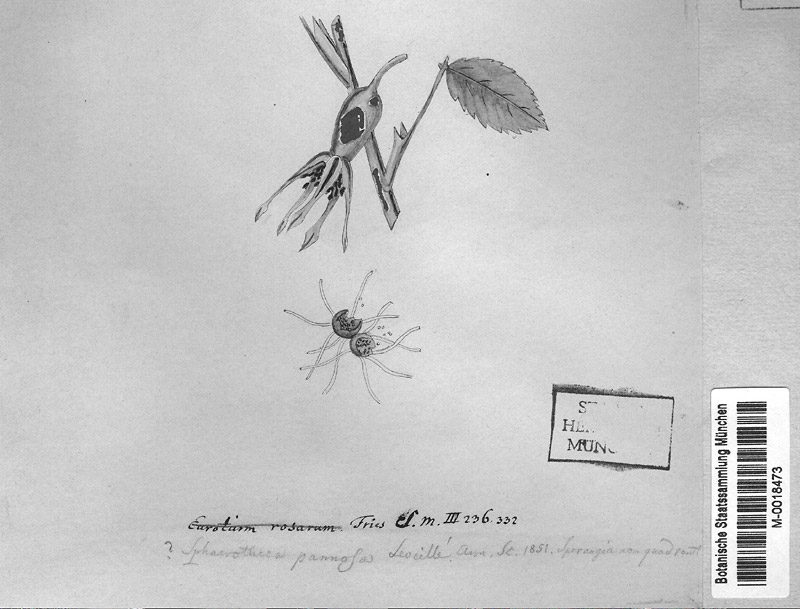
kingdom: Fungi
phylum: Ascomycota
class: Leotiomycetes
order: Helotiales
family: Erysiphaceae
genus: Podosphaera
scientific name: Podosphaera pannosa
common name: Rose mildew
